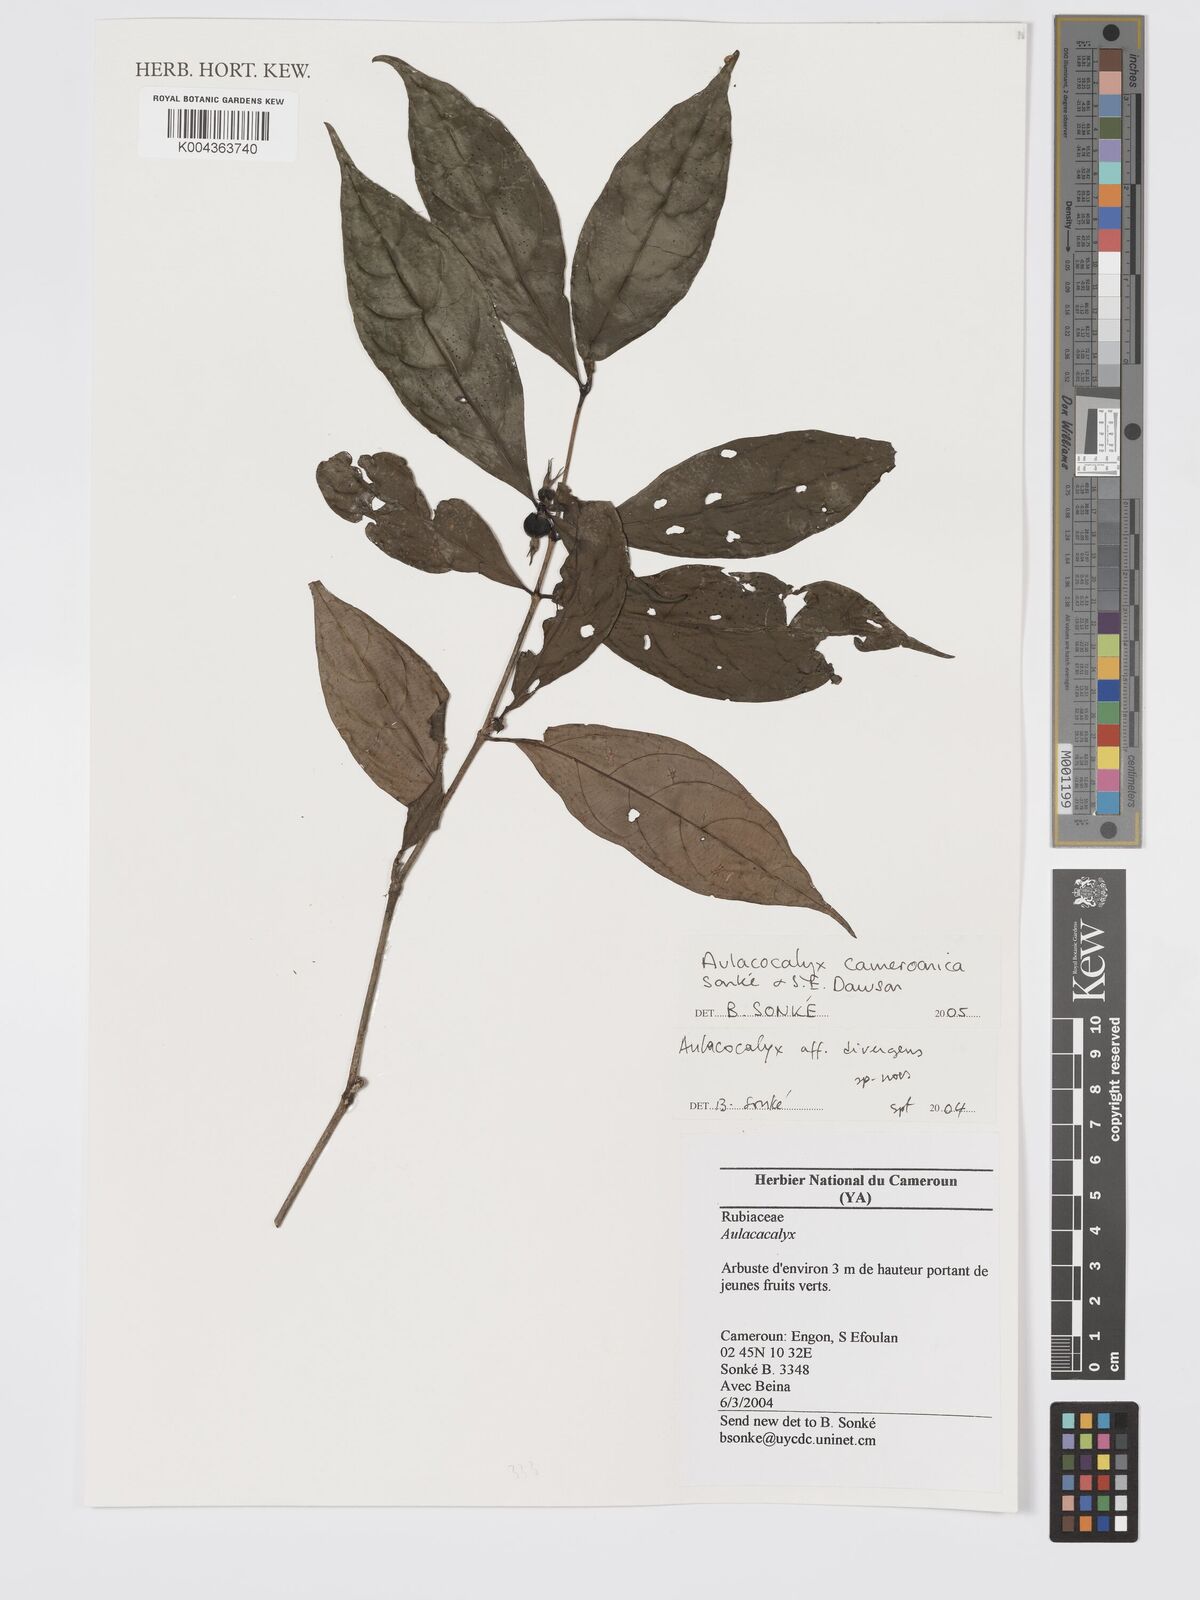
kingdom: Plantae
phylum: Tracheophyta
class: Magnoliopsida
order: Gentianales
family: Rubiaceae
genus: Aulacocalyx
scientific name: Aulacocalyx camerooniana
